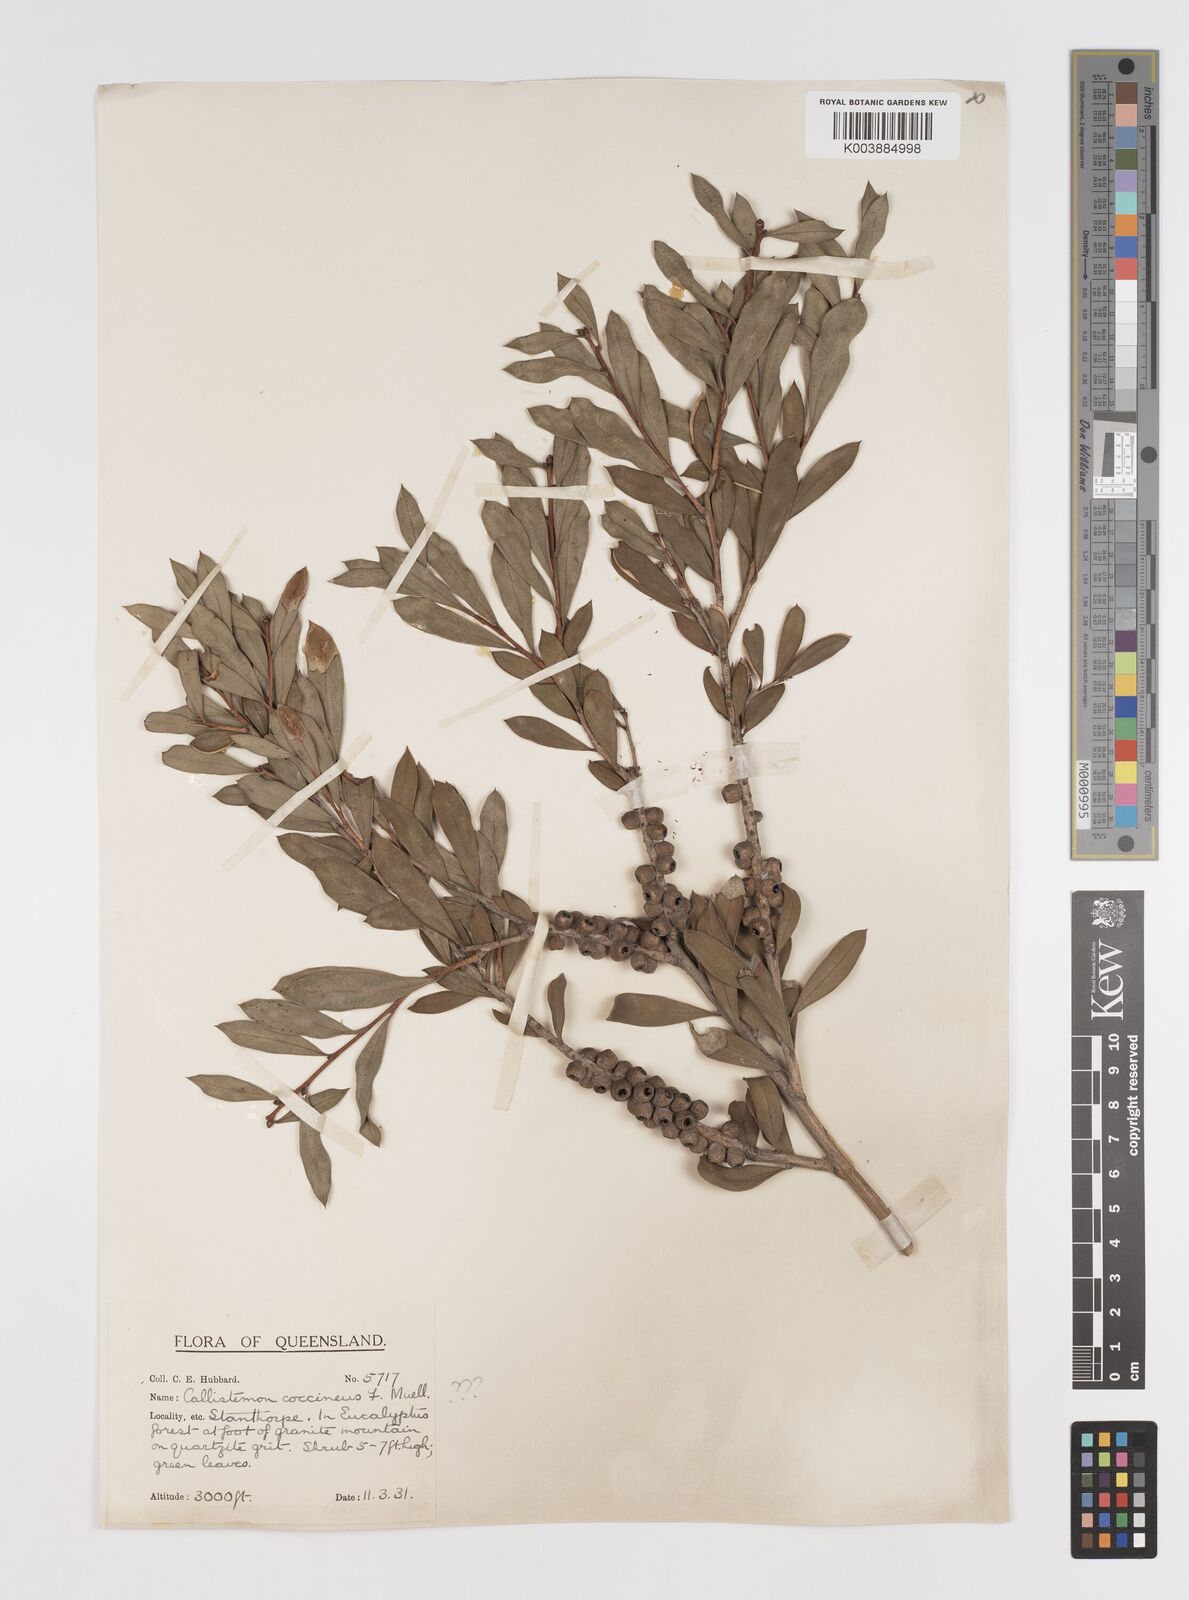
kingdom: Plantae
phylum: Tracheophyta
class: Magnoliopsida
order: Myrtales
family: Myrtaceae
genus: Melaleuca
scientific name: Melaleuca pallida
